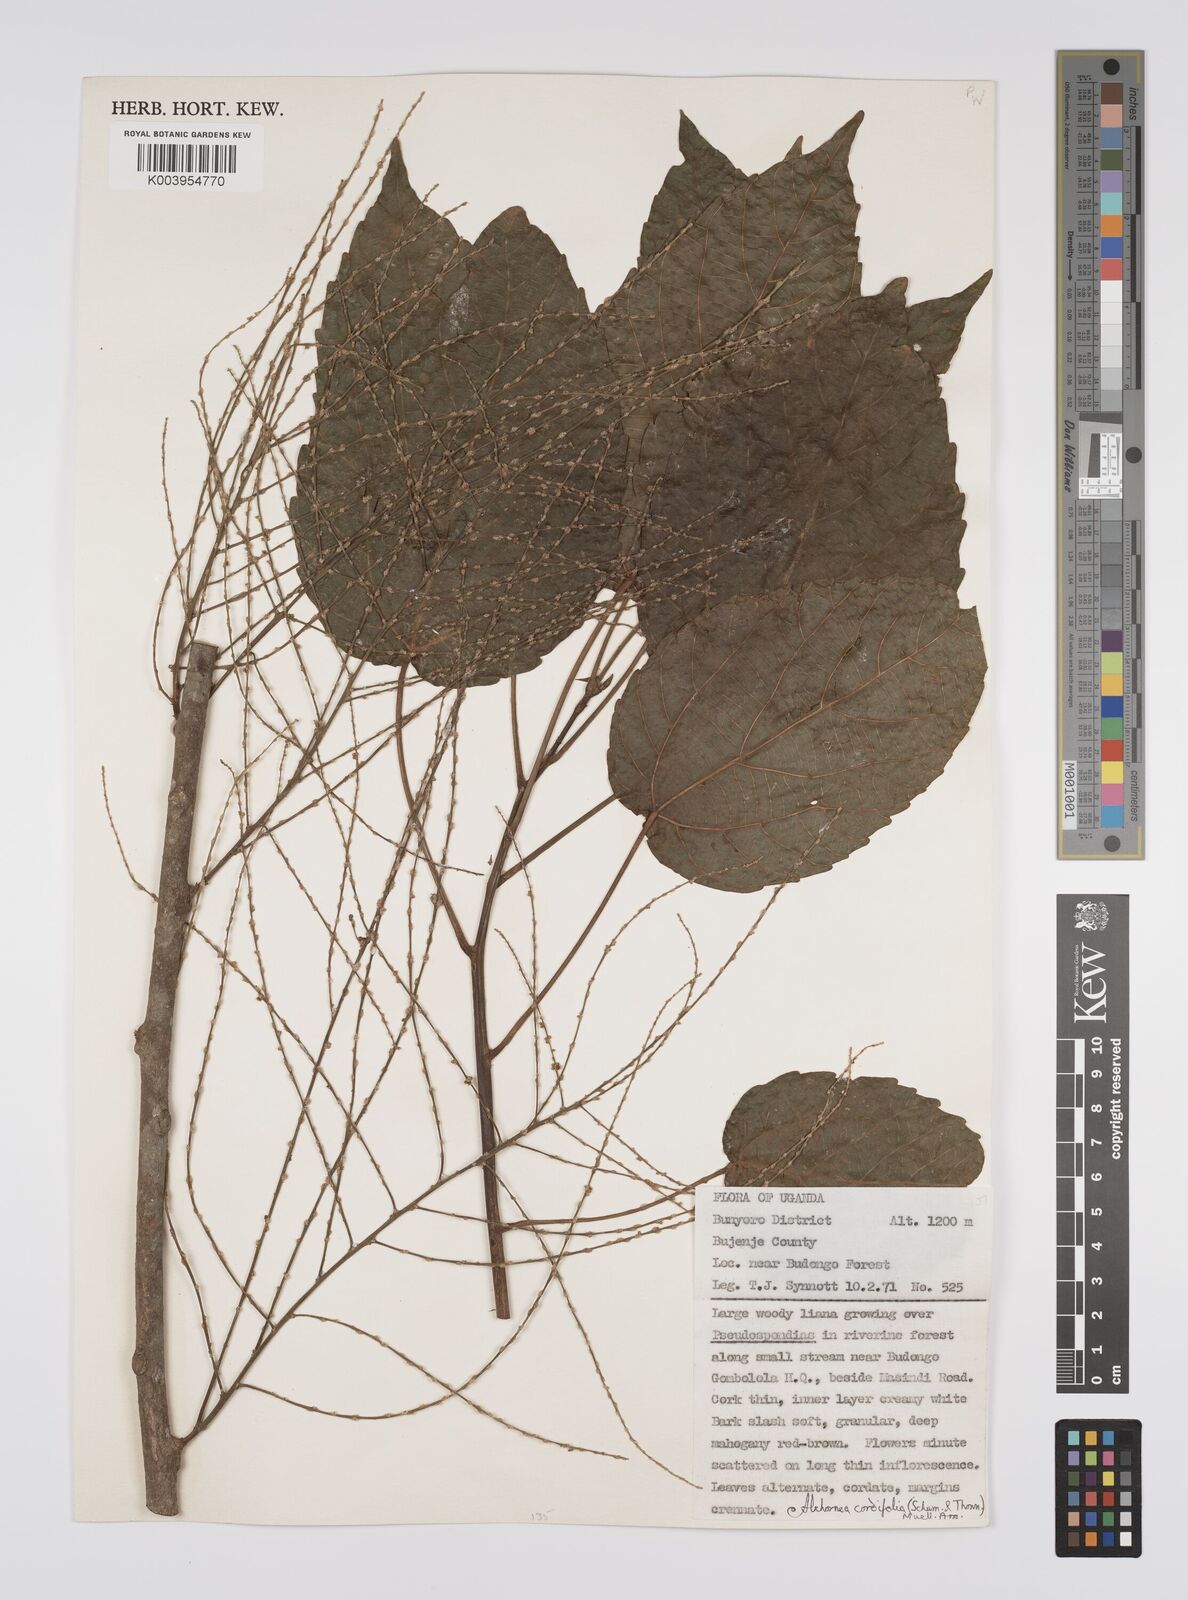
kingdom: Plantae
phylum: Tracheophyta
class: Magnoliopsida
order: Malpighiales
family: Euphorbiaceae
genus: Alchornea
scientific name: Alchornea cordifolia
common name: Christmasbush
